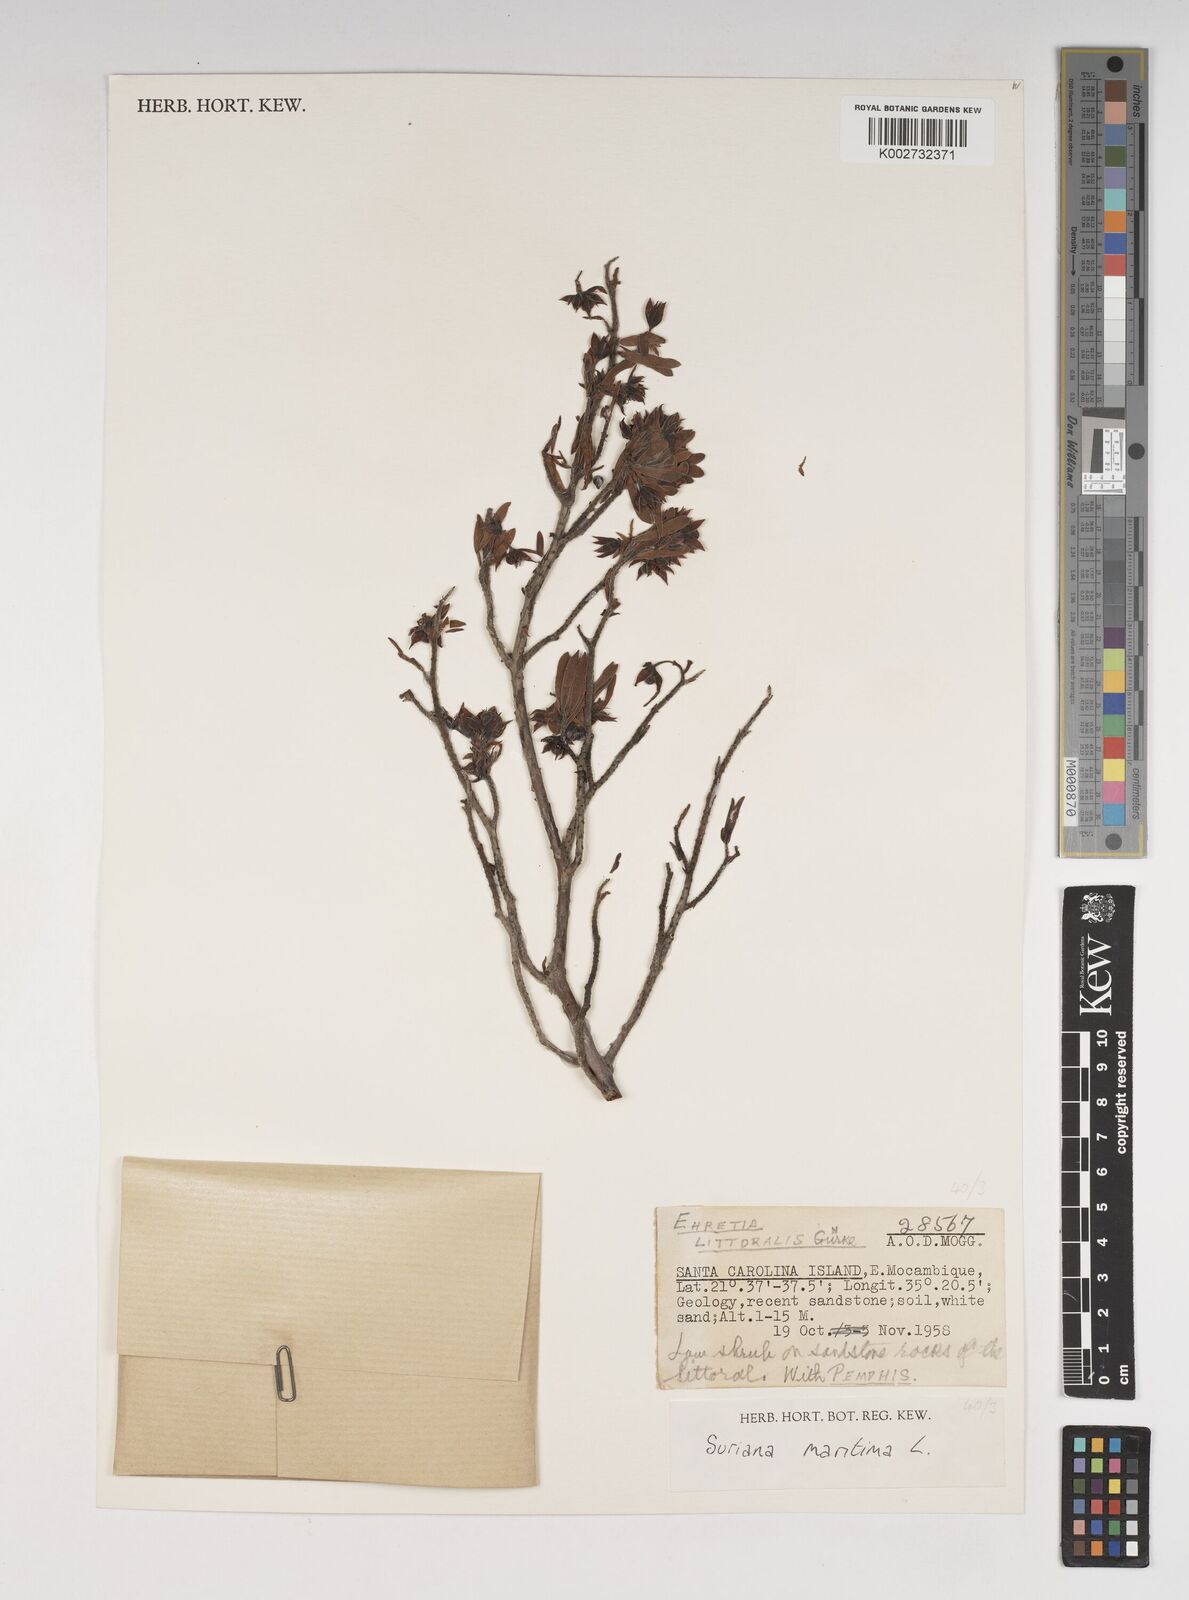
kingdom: Plantae
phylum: Tracheophyta
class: Magnoliopsida
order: Fabales
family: Surianaceae
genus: Suriana
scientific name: Suriana maritima
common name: Bay-cedar
